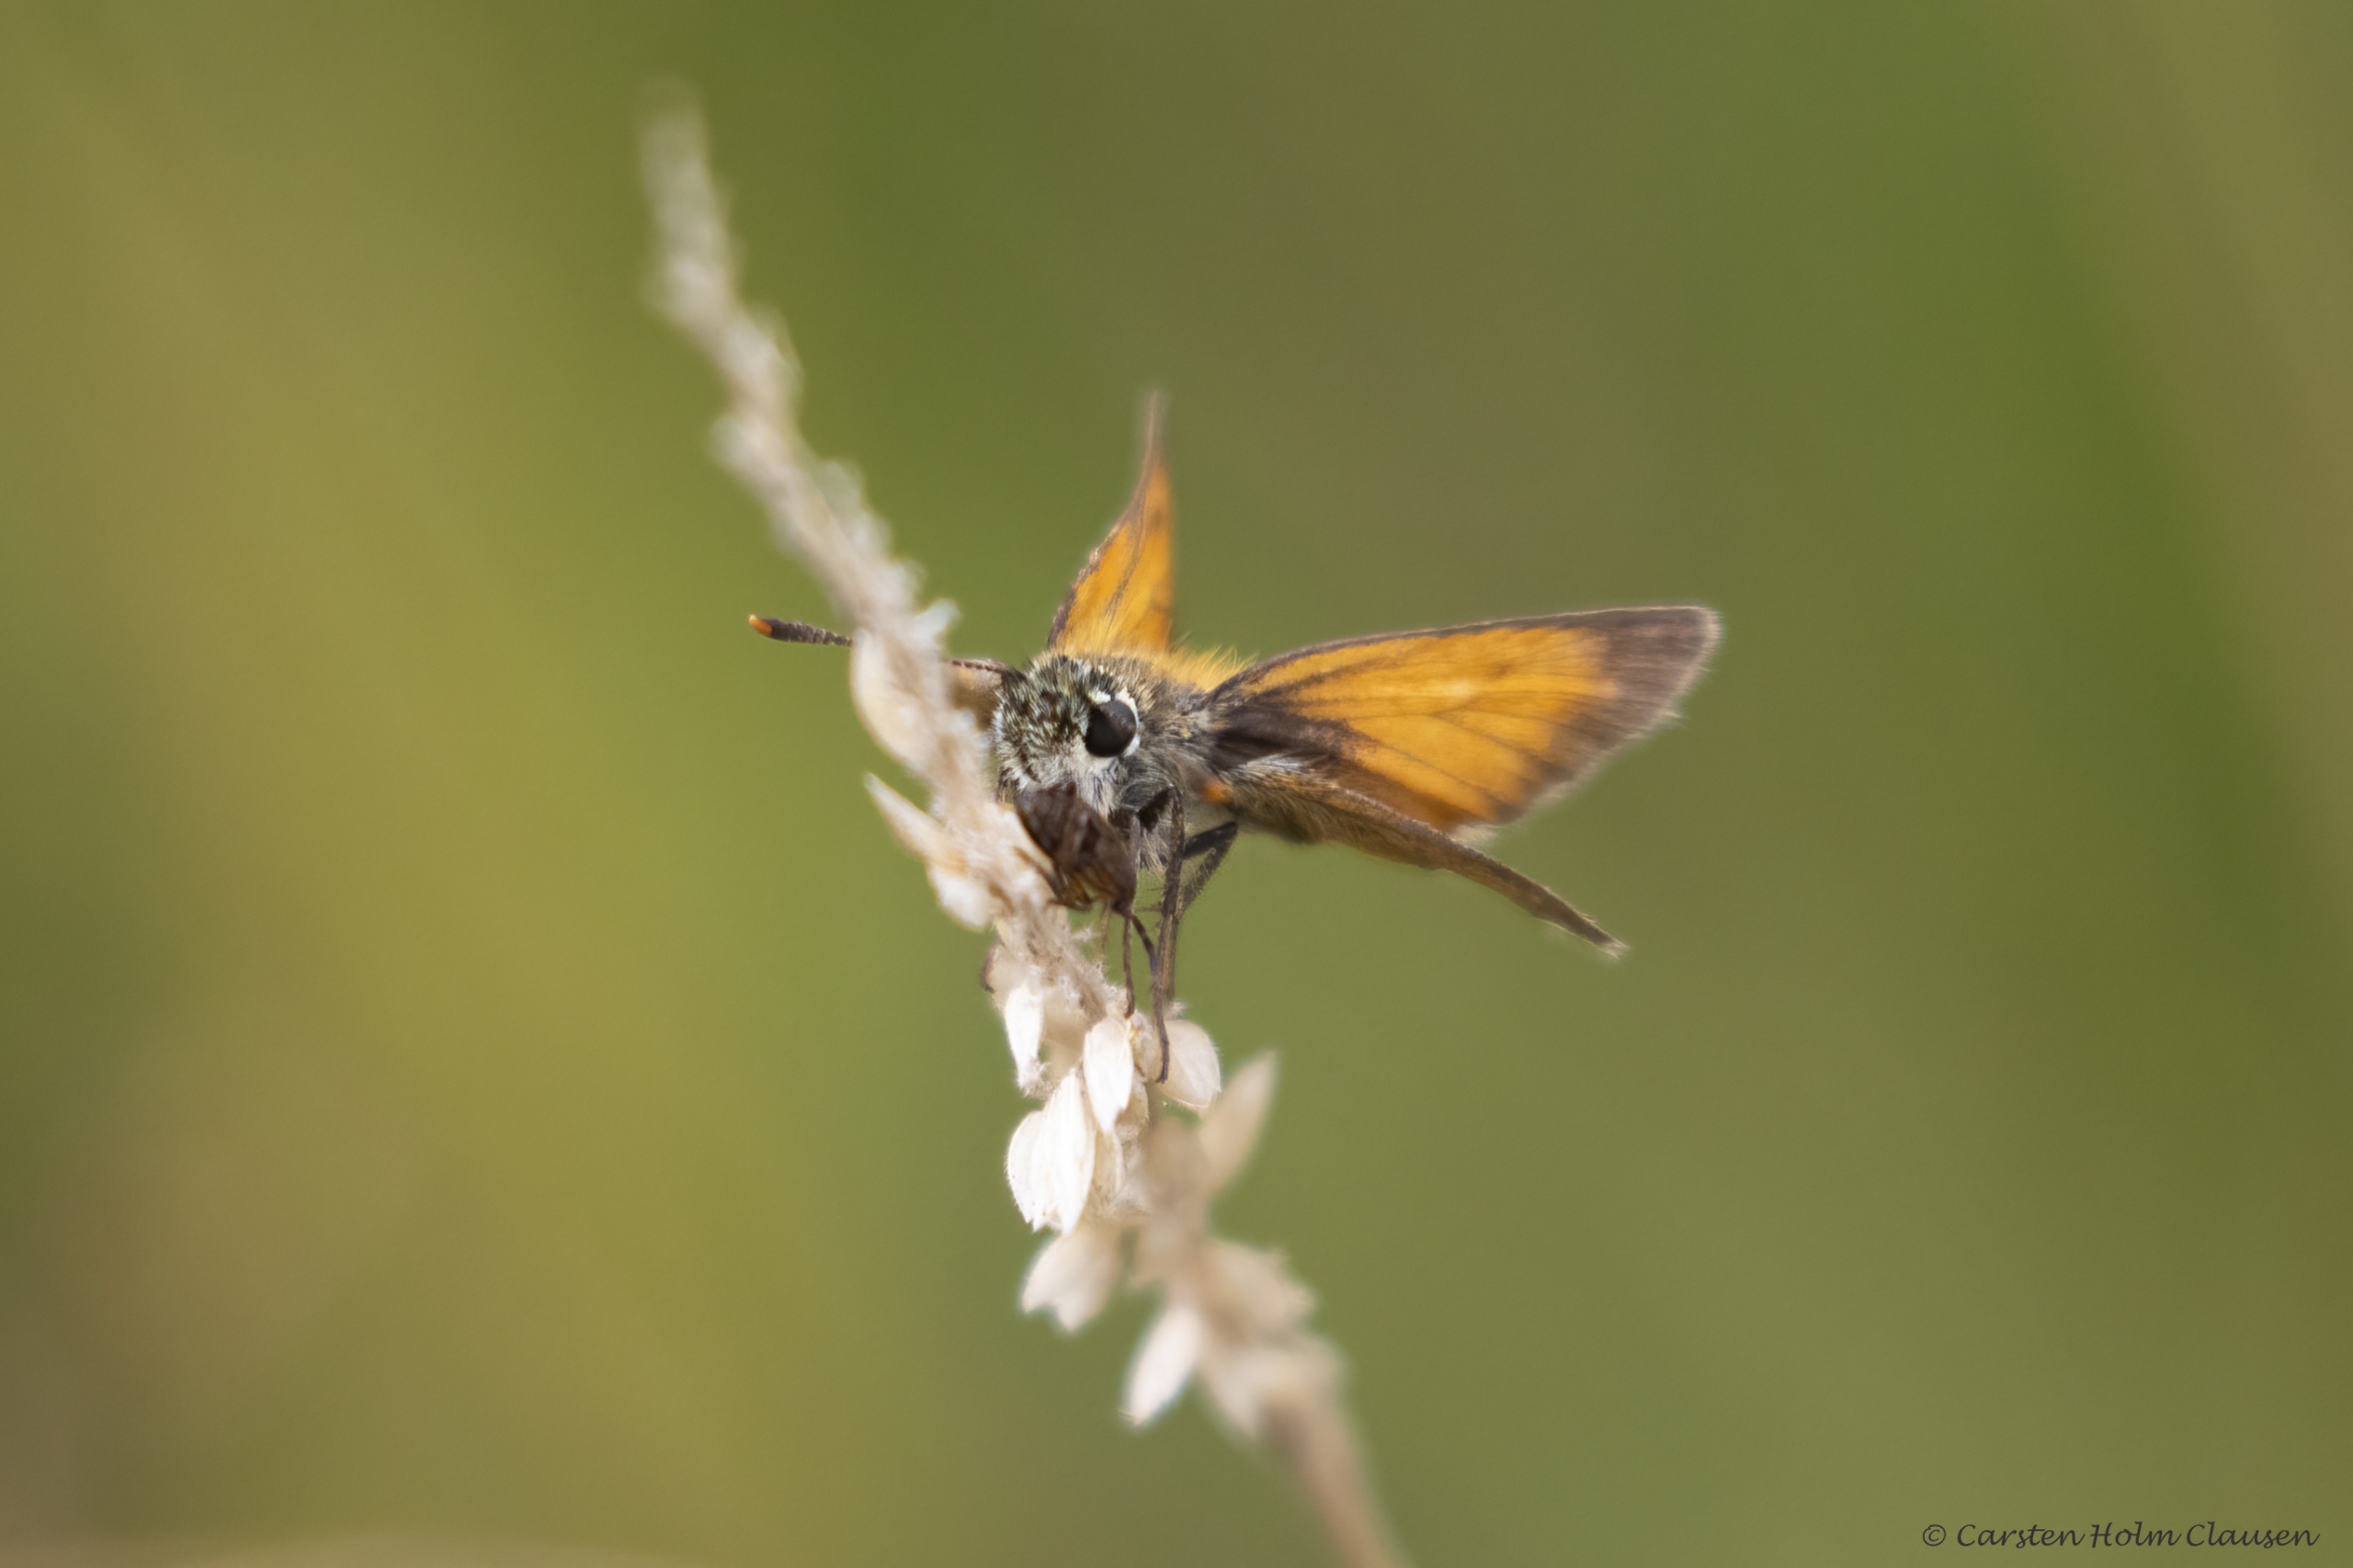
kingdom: Animalia
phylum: Arthropoda
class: Insecta
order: Lepidoptera
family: Hesperiidae
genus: Thymelicus
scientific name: Thymelicus sylvestris
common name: Skråstregbredpande
